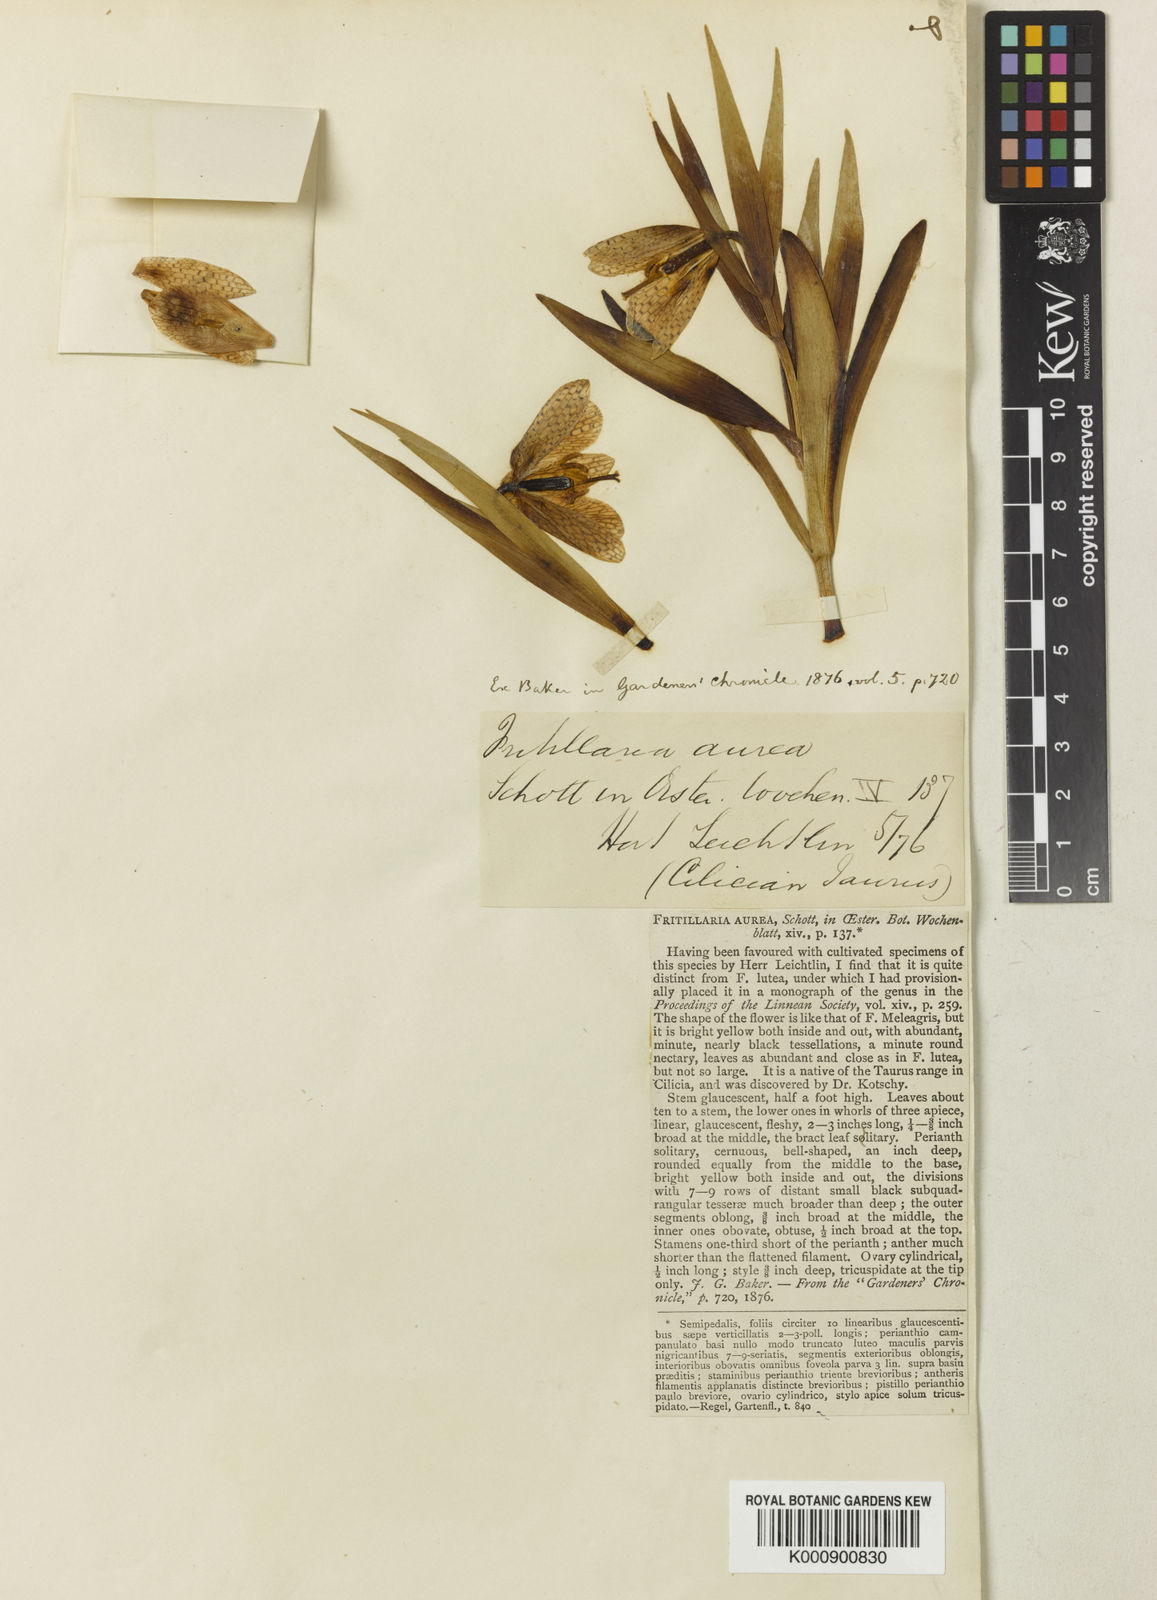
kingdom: Plantae
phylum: Tracheophyta
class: Liliopsida
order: Liliales
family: Liliaceae
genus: Fritillaria
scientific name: Fritillaria aurea
